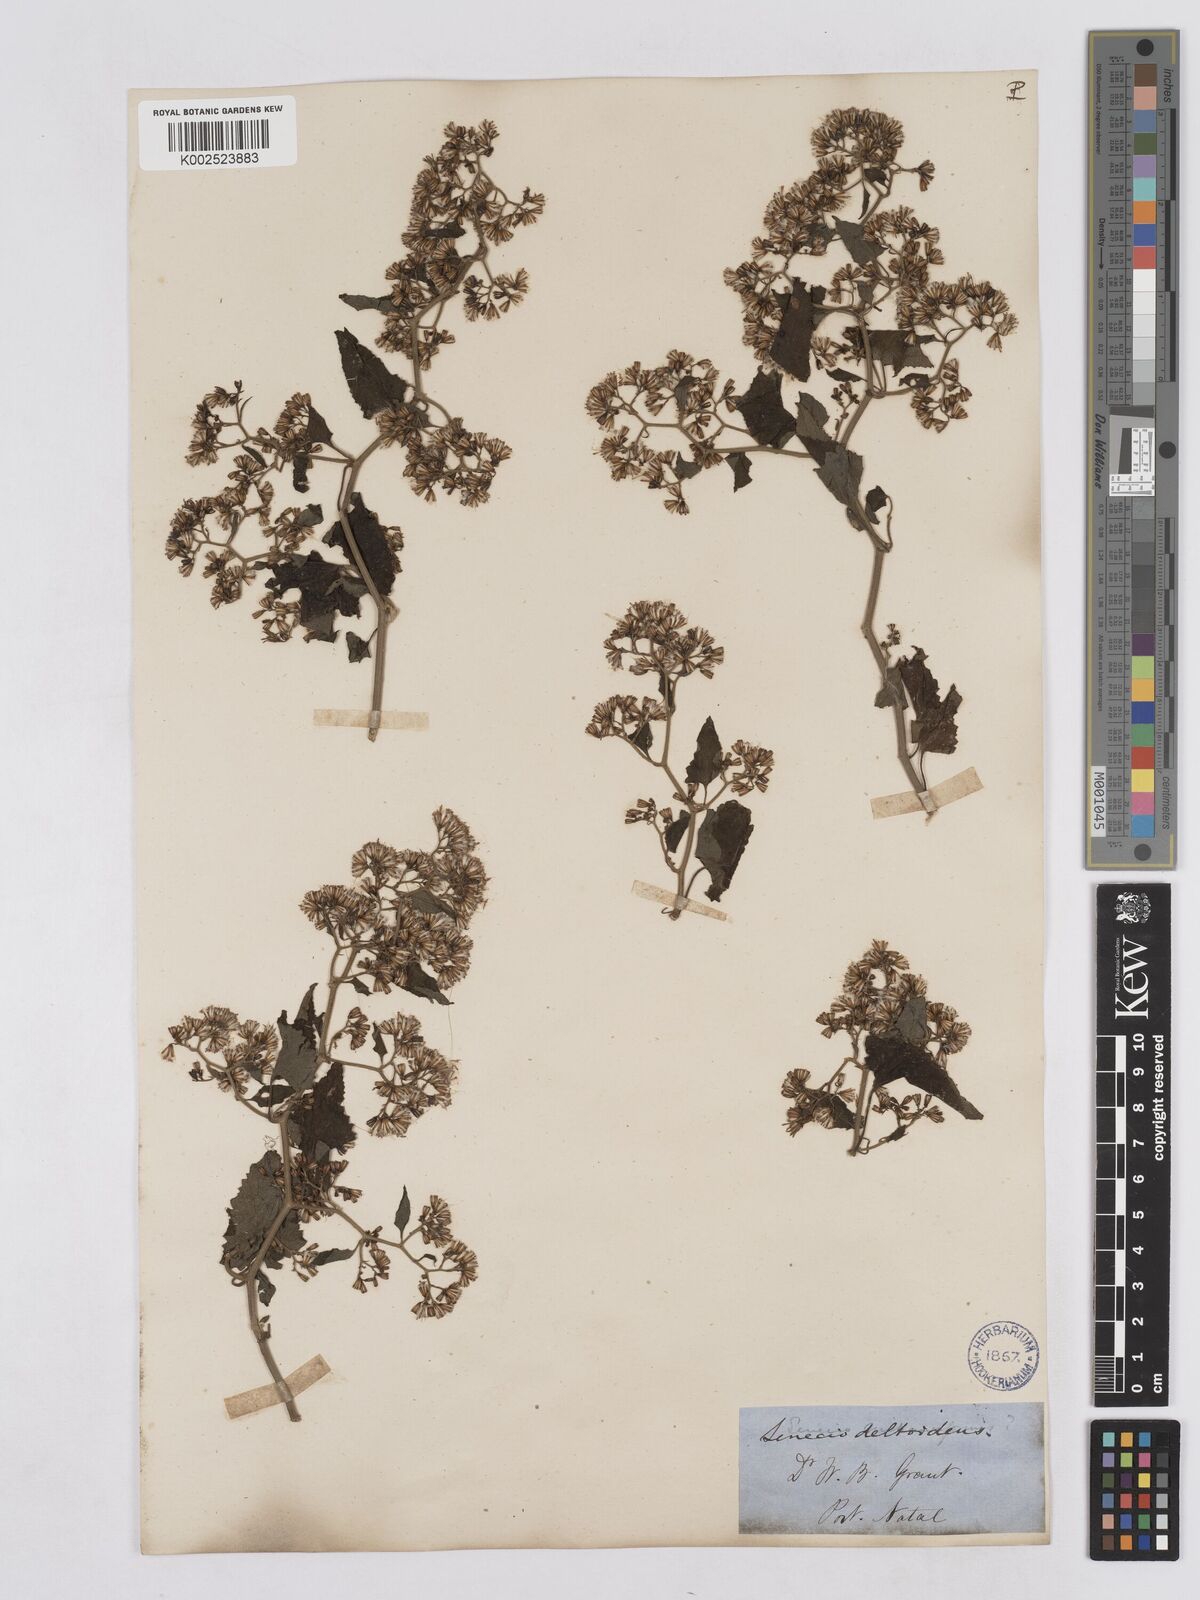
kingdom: Plantae
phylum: Tracheophyta
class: Magnoliopsida
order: Asterales
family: Asteraceae
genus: Senecio
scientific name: Senecio deltoideus
